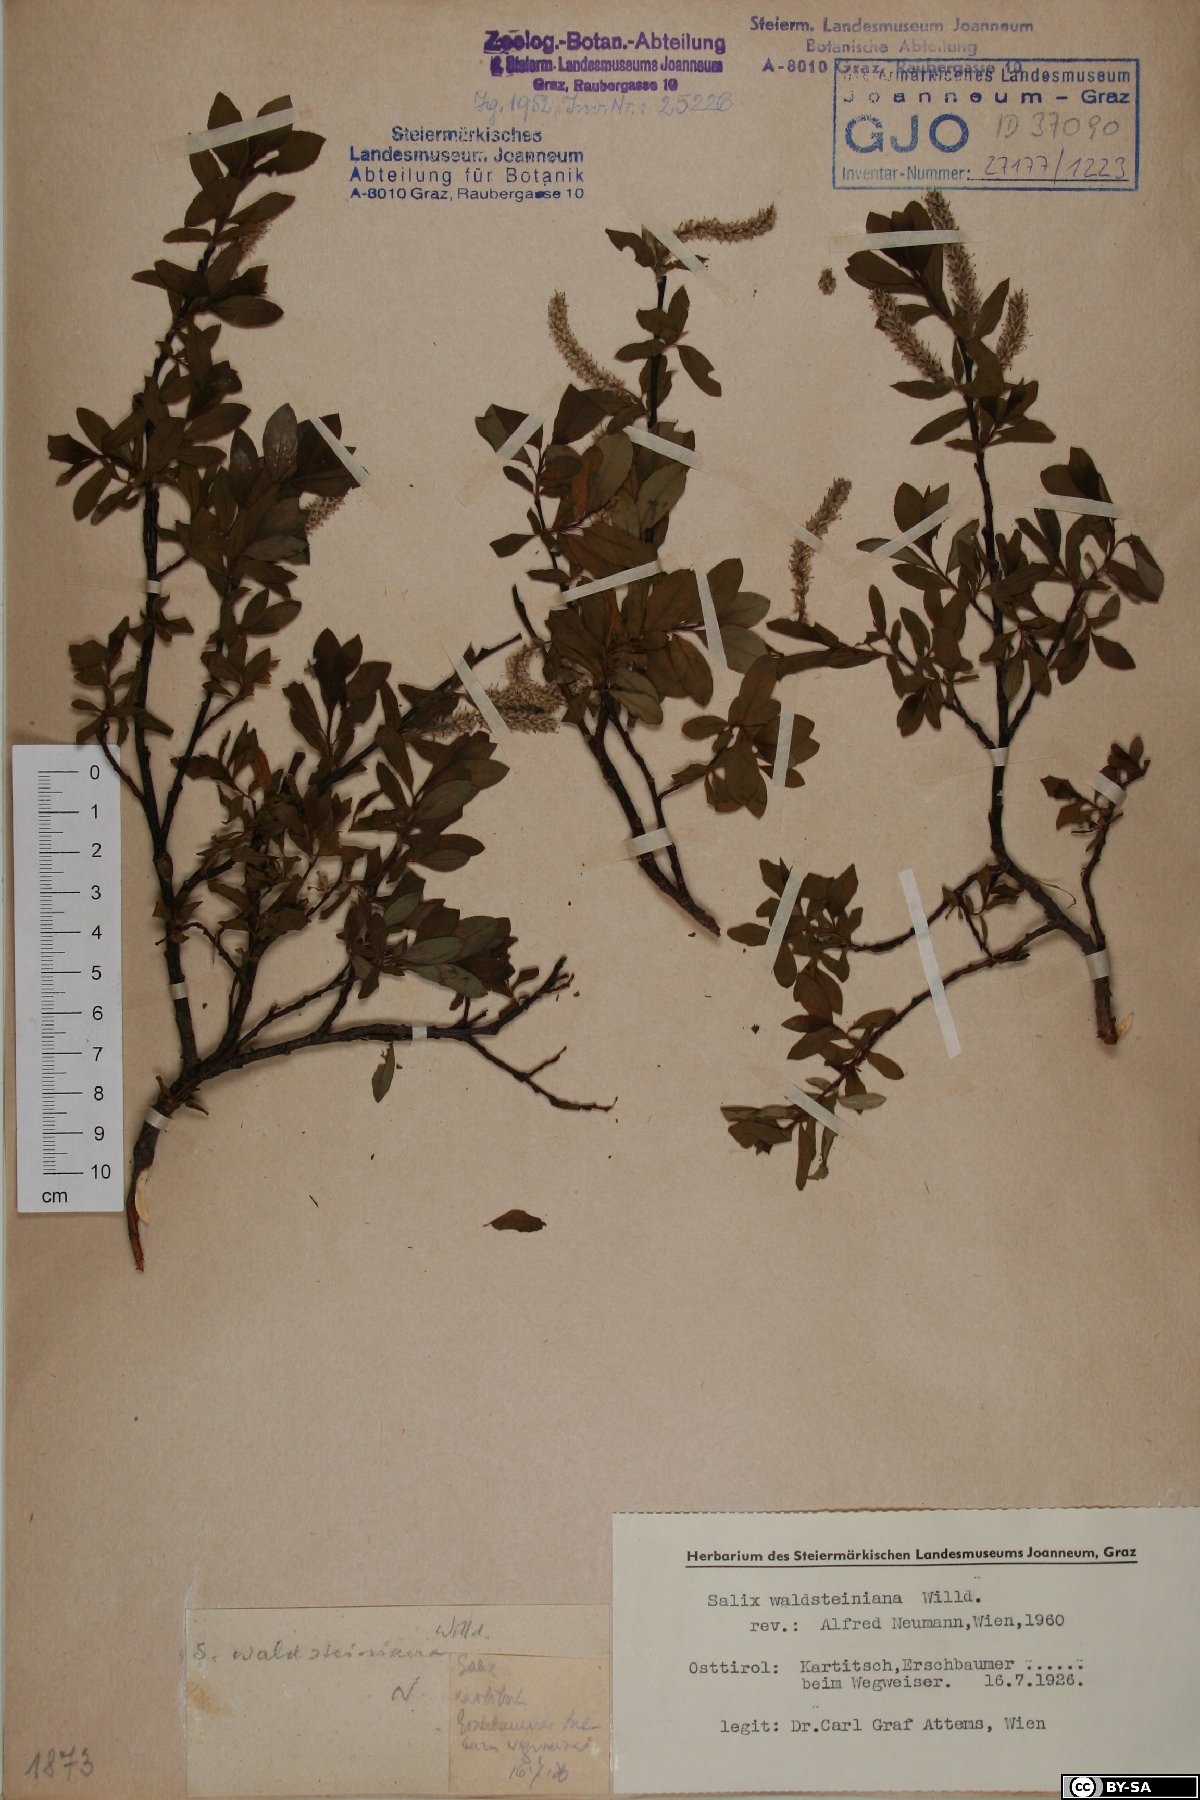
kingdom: Plantae
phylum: Tracheophyta
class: Magnoliopsida
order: Malpighiales
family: Salicaceae
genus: Salix
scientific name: Salix waldsteiniana
